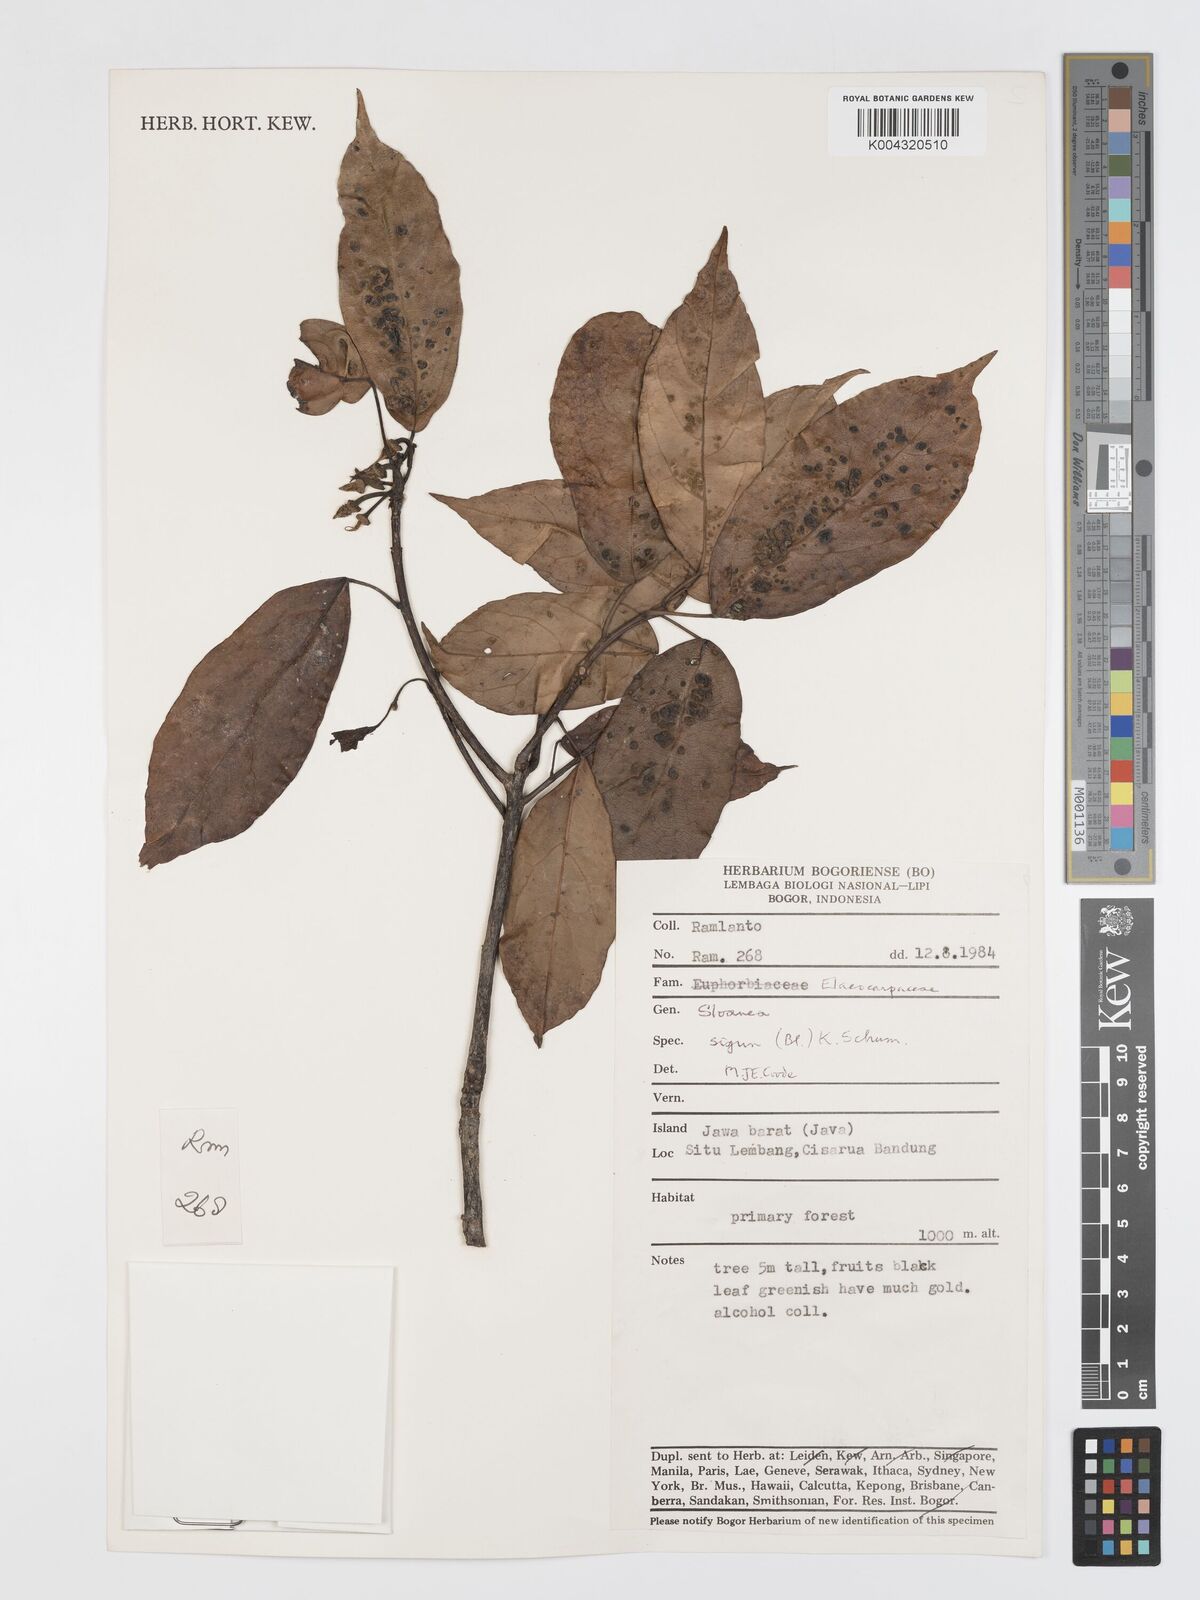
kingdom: Plantae
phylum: Tracheophyta
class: Magnoliopsida
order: Oxalidales
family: Elaeocarpaceae
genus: Sloanea
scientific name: Sloanea sigun
